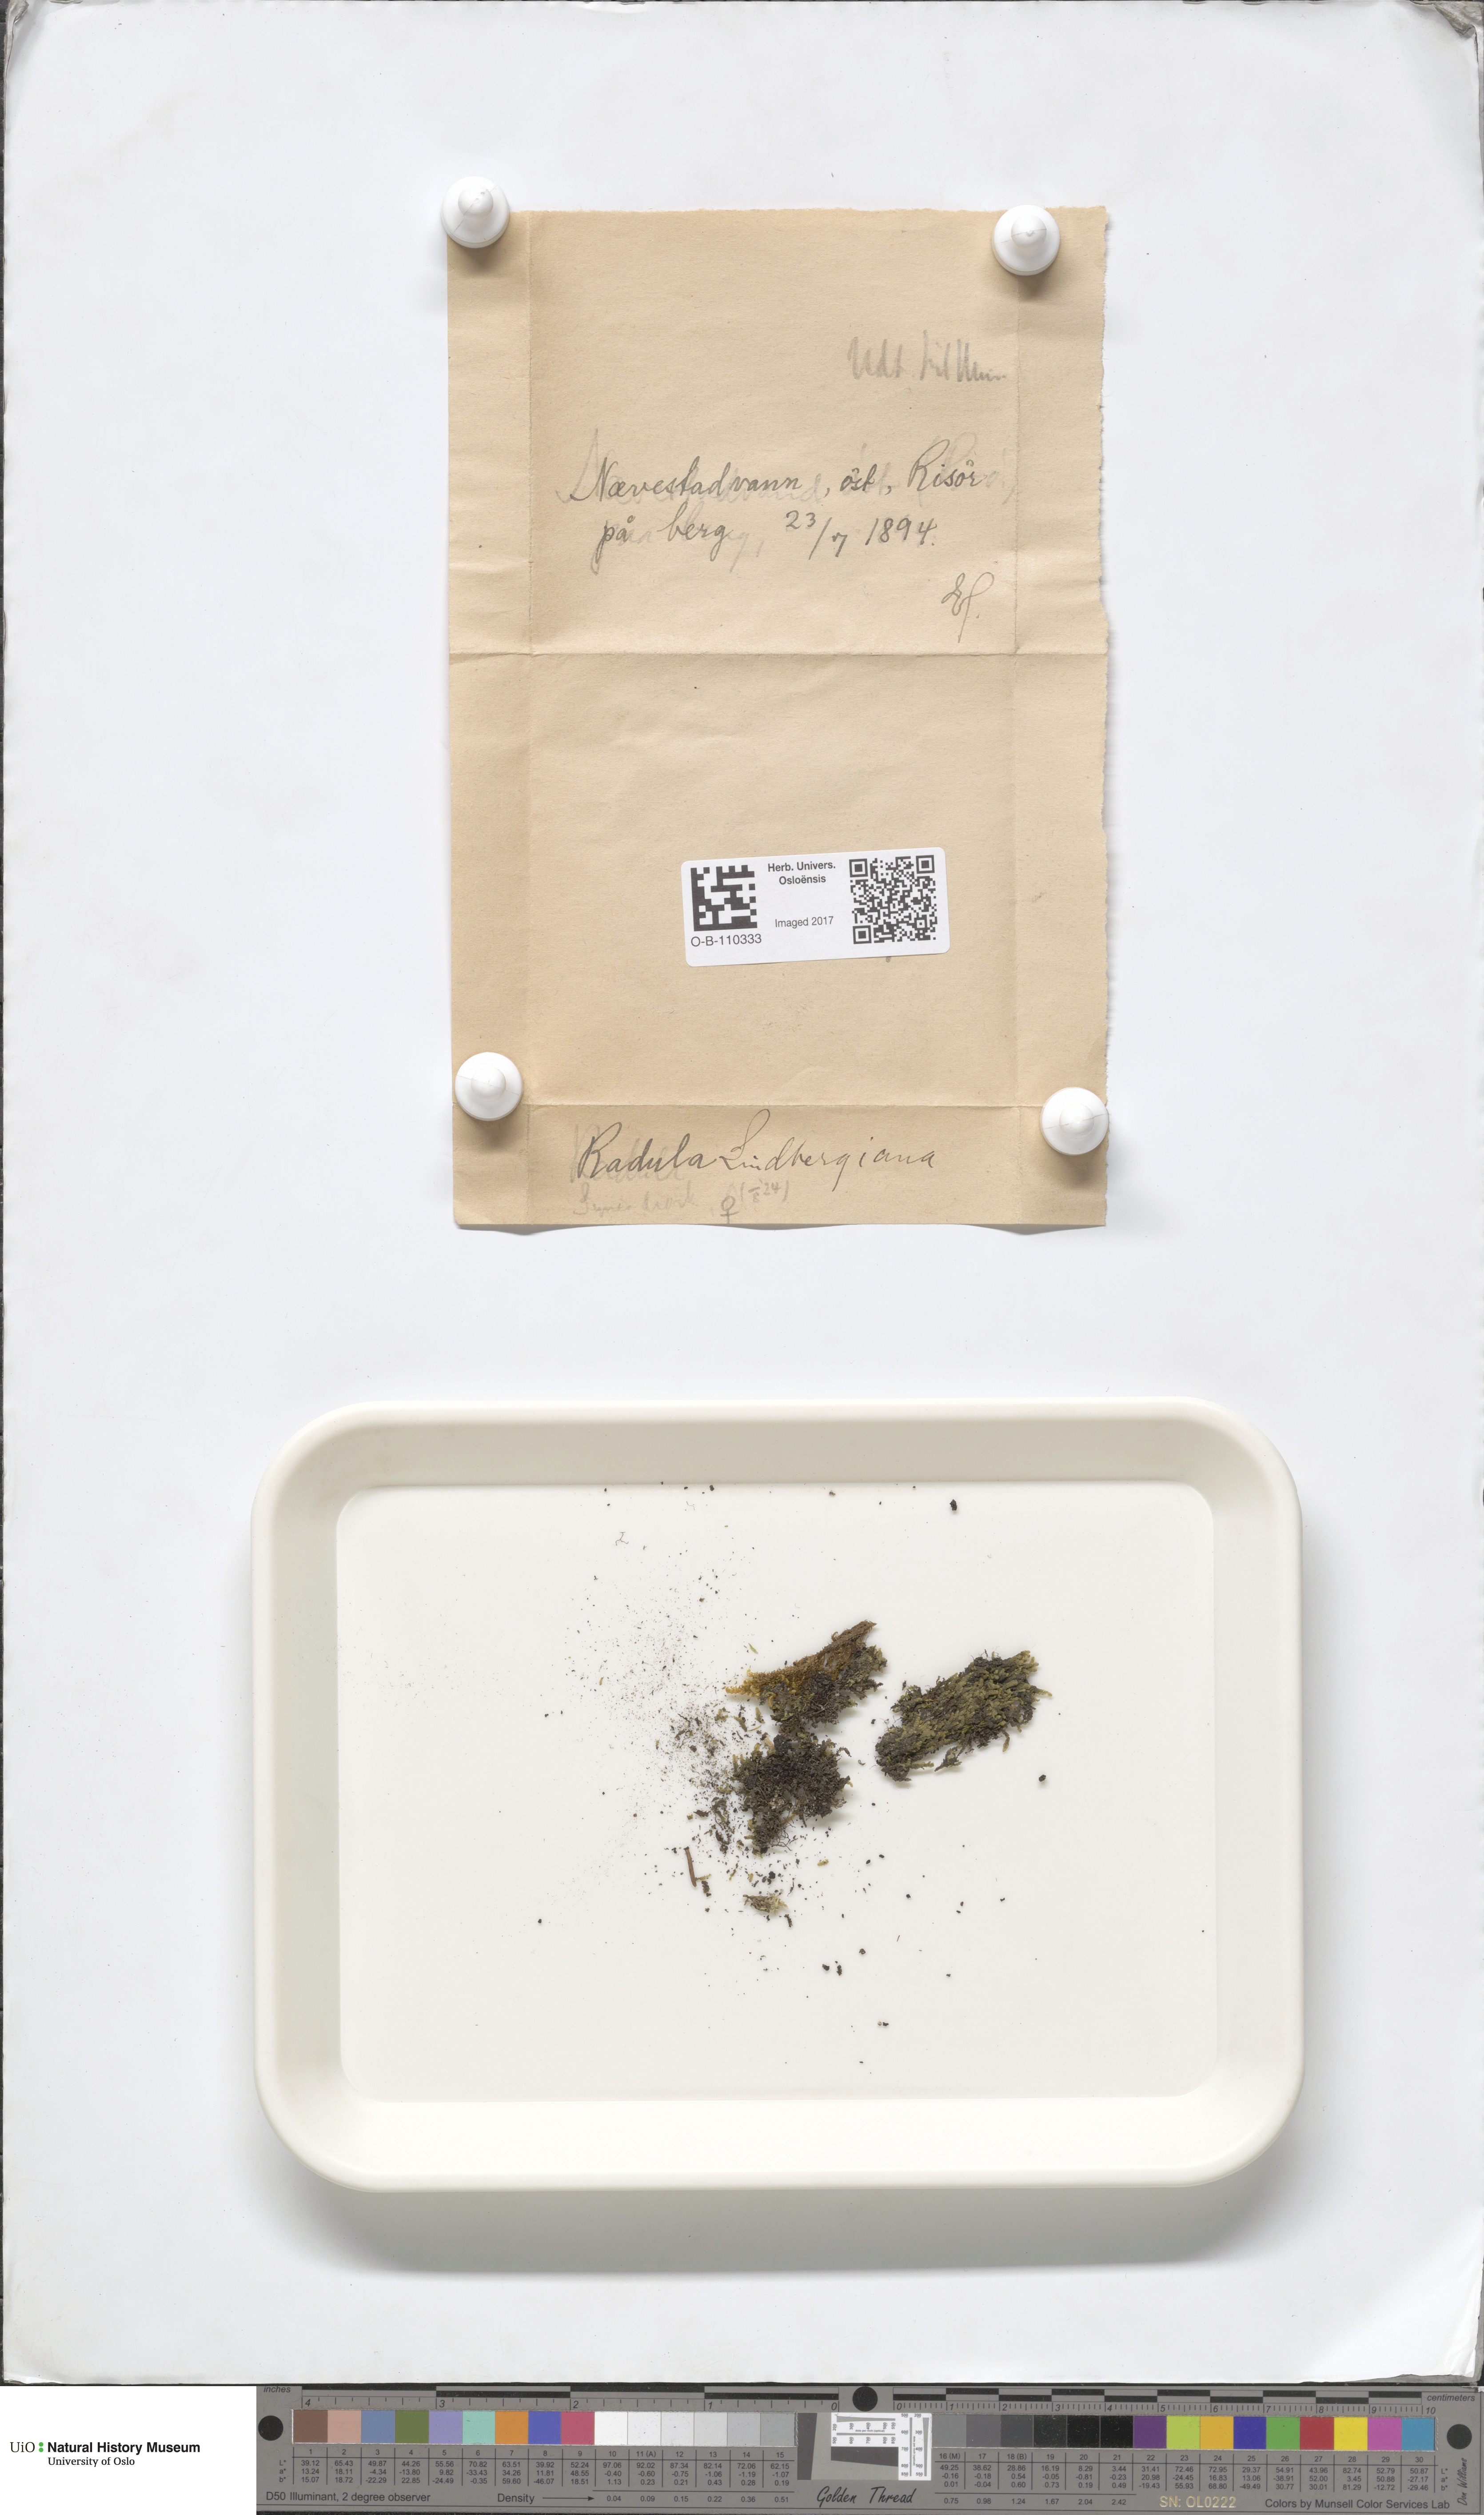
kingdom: Plantae
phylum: Marchantiophyta
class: Jungermanniopsida
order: Porellales
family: Radulaceae
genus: Radula
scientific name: Radula complanata
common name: Flat-leaved scalewort
